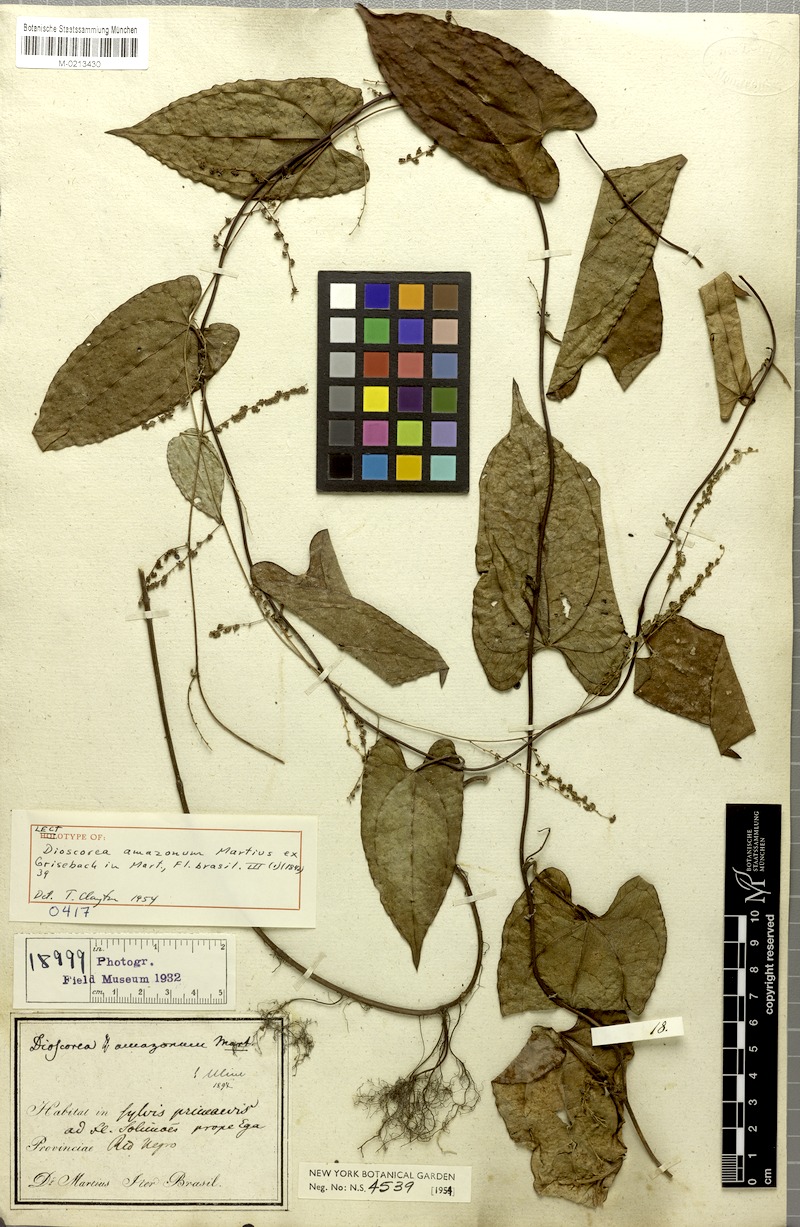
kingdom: Plantae
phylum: Tracheophyta
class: Liliopsida
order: Dioscoreales
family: Dioscoreaceae
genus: Dioscorea
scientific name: Dioscorea amazonum
